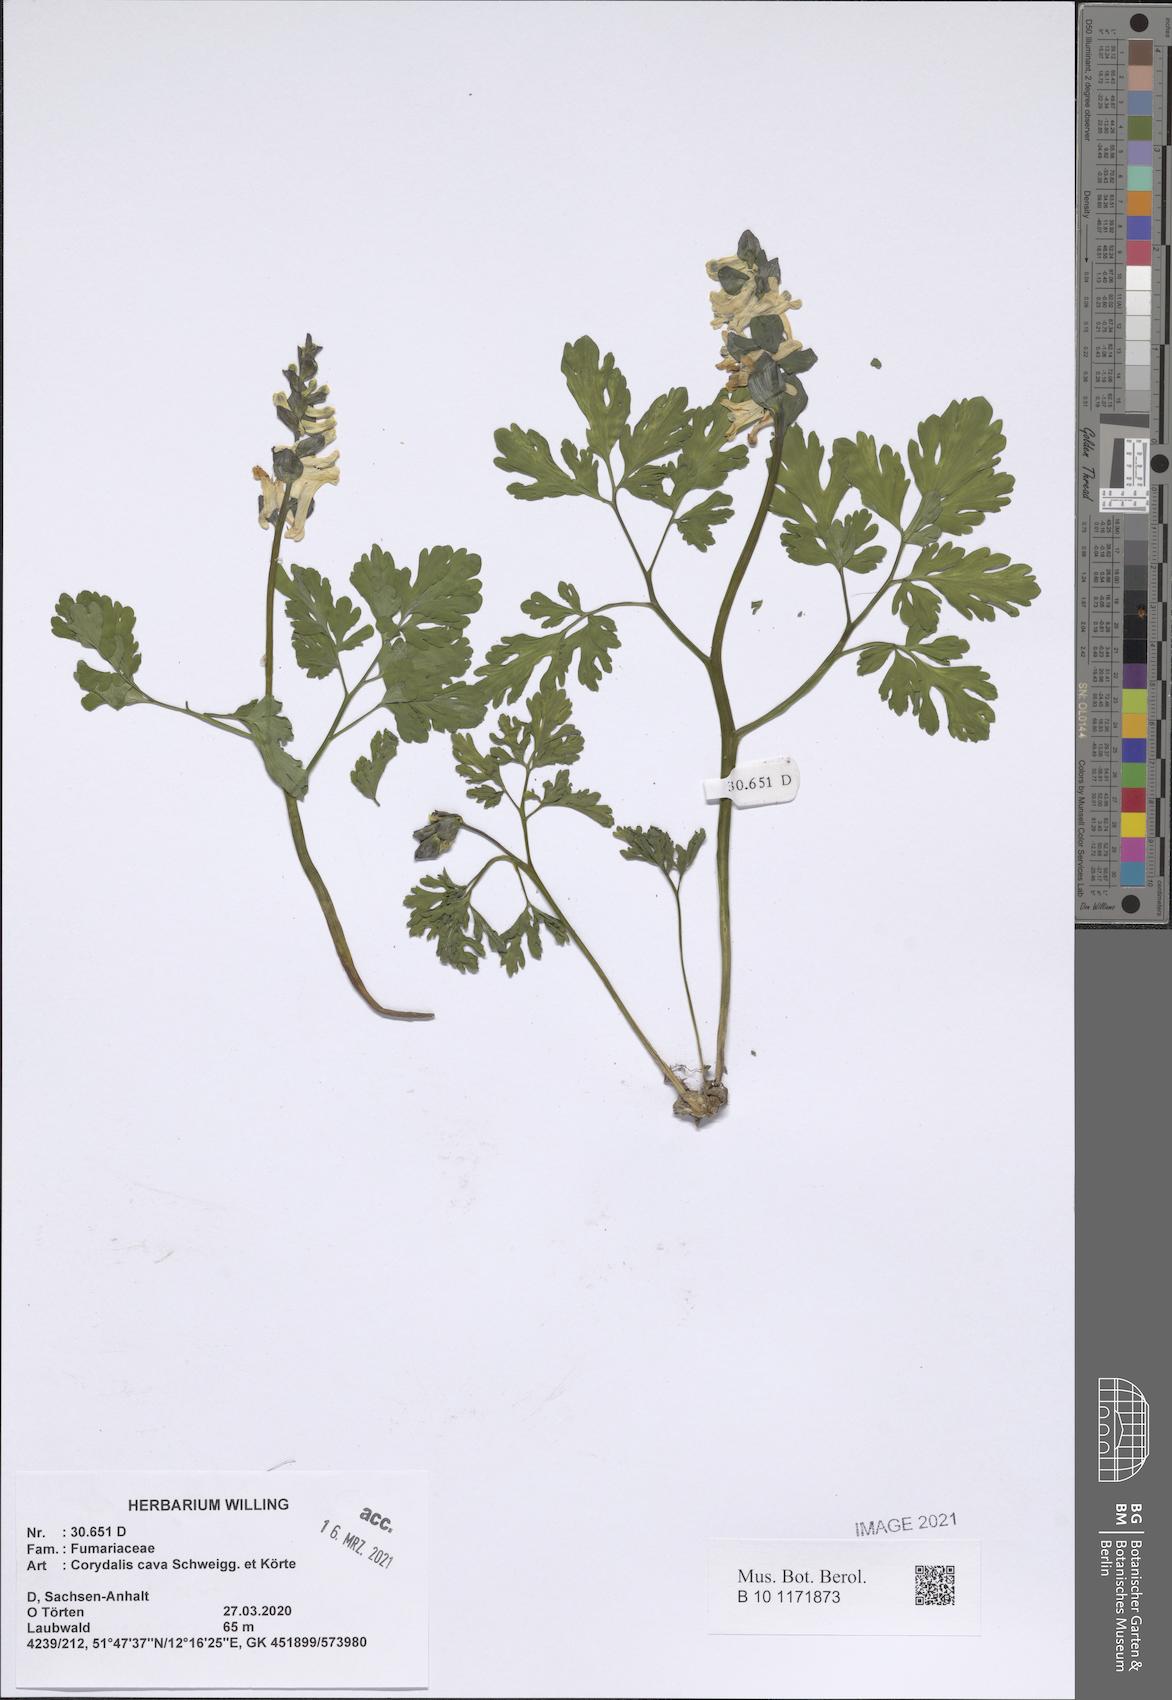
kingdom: Plantae
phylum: Tracheophyta
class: Magnoliopsida
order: Ranunculales
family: Papaveraceae
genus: Corydalis
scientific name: Corydalis cava
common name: Hollowroot
